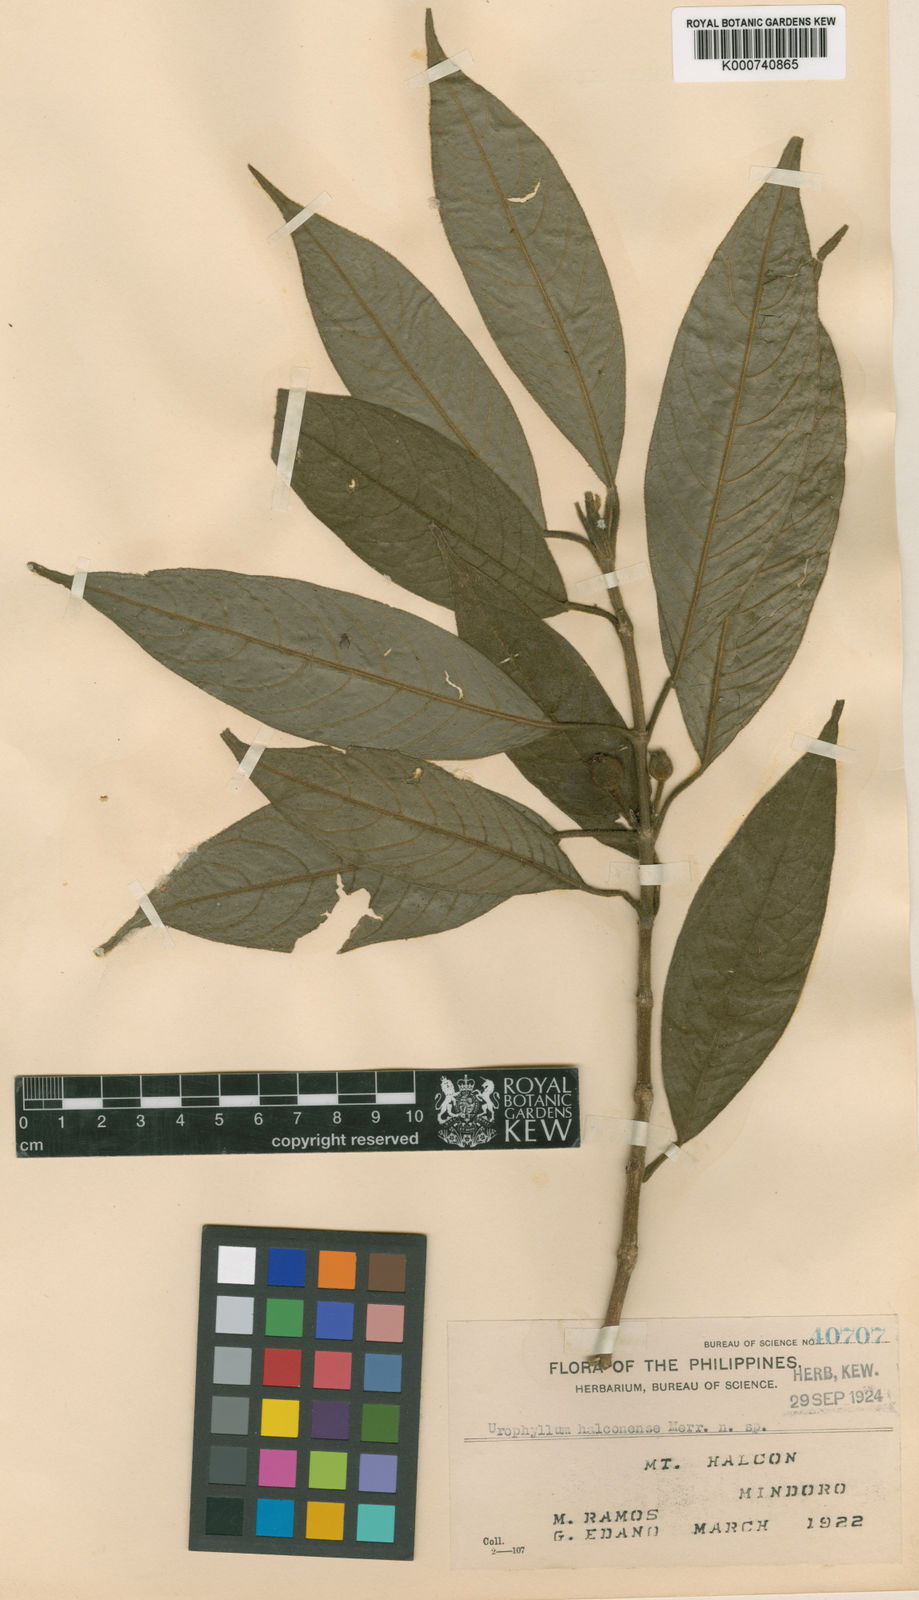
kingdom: Plantae
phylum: Tracheophyta
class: Magnoliopsida
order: Gentianales
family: Rubiaceae
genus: Urophyllum
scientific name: Urophyllum
